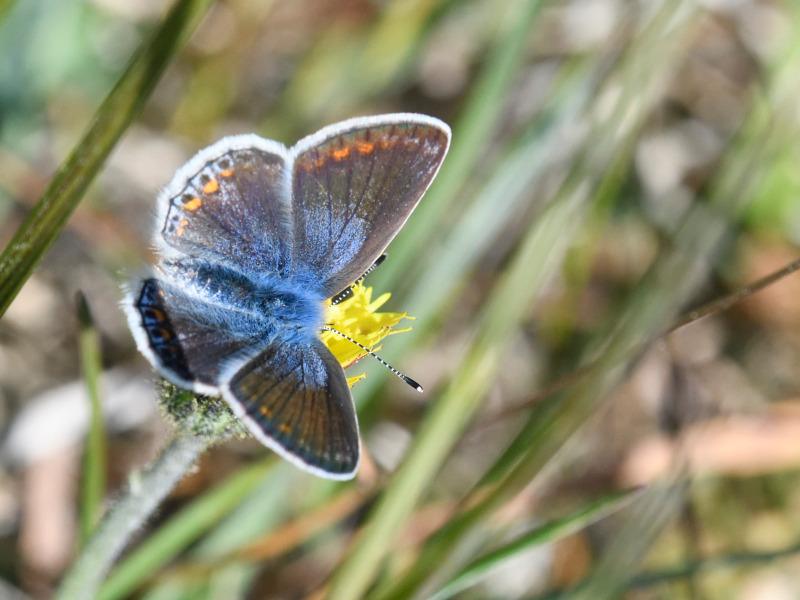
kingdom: Animalia
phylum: Arthropoda
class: Insecta
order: Lepidoptera
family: Lycaenidae
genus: Polyommatus
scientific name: Polyommatus icarus
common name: Almindelig blåfugl
